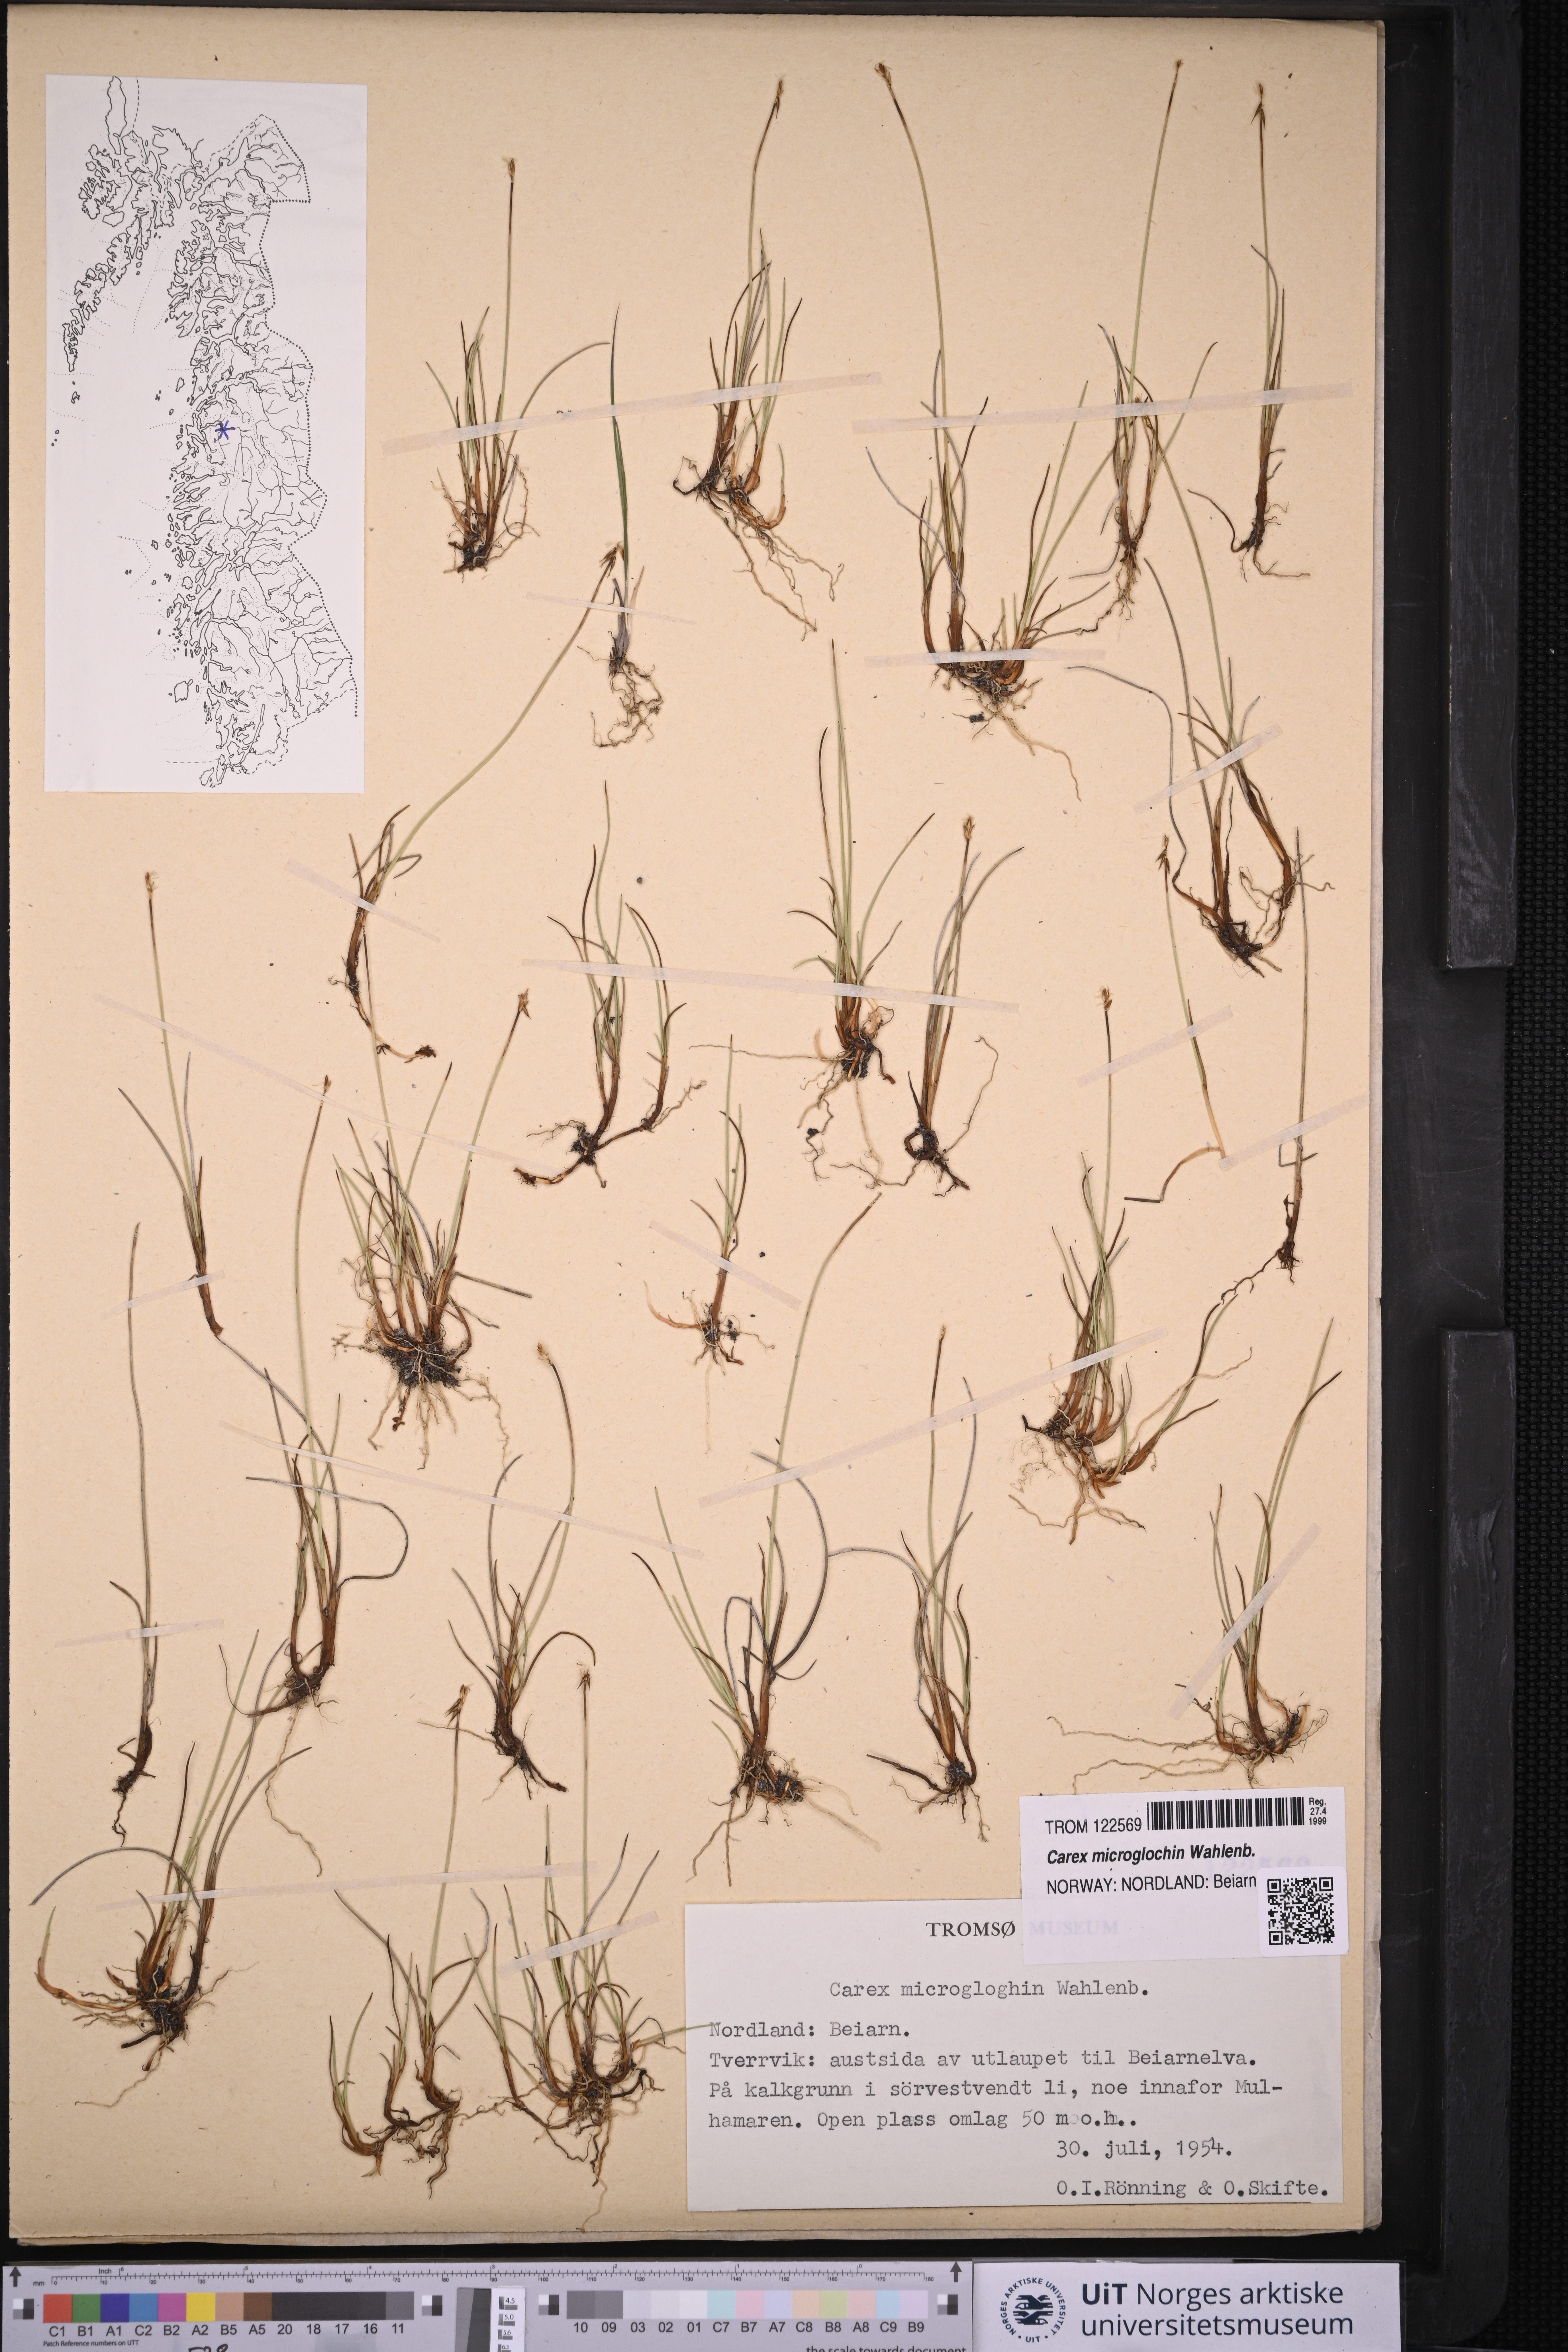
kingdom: Plantae
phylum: Tracheophyta
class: Liliopsida
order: Poales
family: Cyperaceae
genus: Carex
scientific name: Carex microglochin
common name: Bristle sedge
